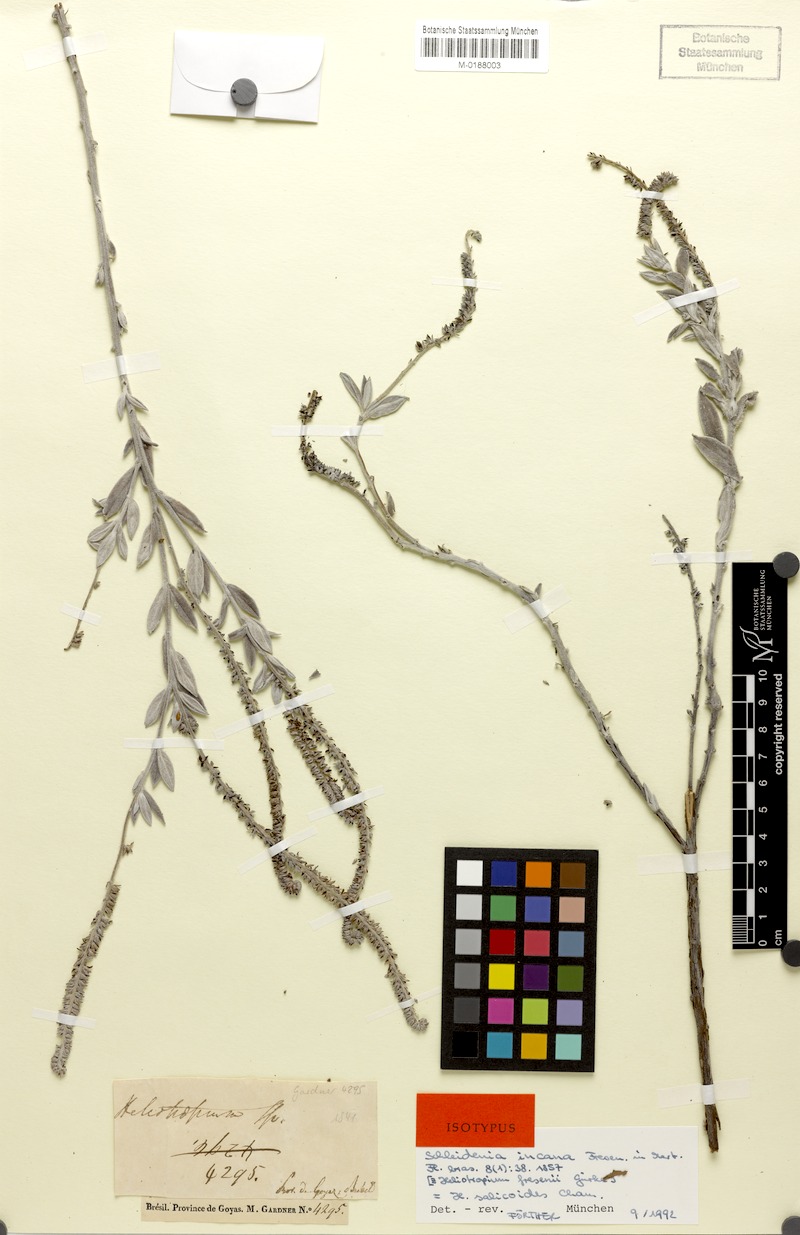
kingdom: Plantae
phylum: Tracheophyta
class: Magnoliopsida
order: Boraginales
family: Heliotropiaceae
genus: Euploca
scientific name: Euploca salicoides
